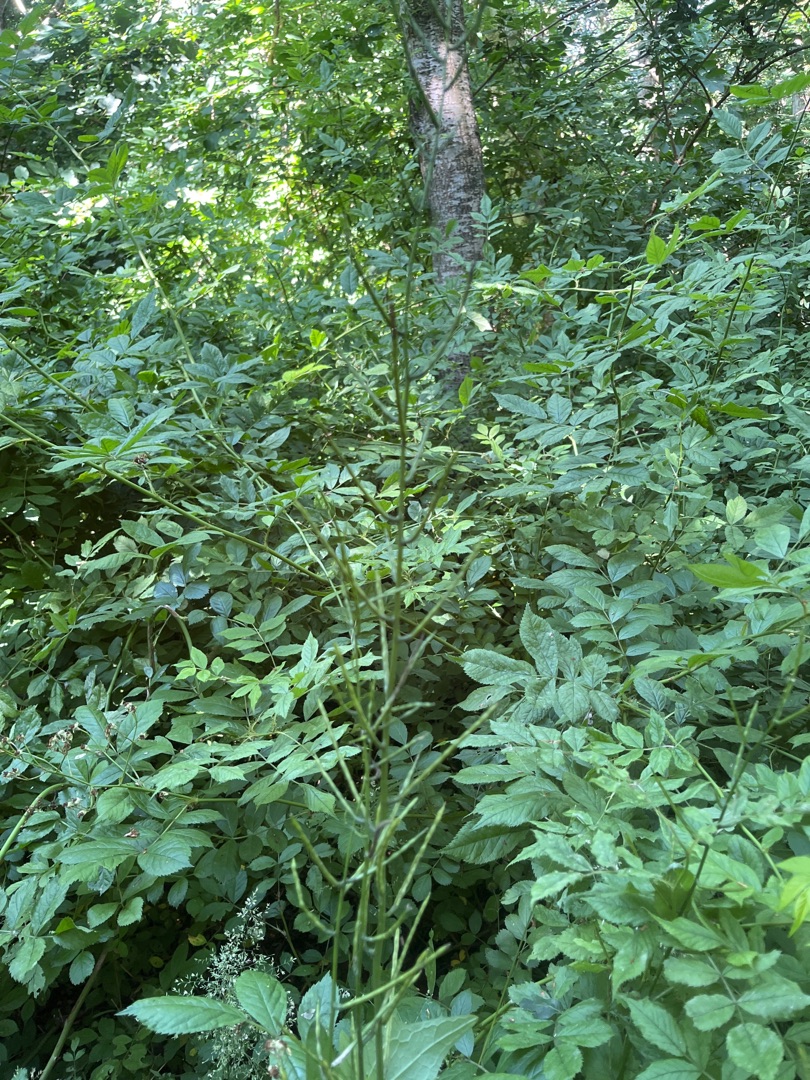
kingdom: Plantae
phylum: Tracheophyta
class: Magnoliopsida
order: Brassicales
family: Brassicaceae
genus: Alliaria
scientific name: Alliaria petiolata
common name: Løgkarse
